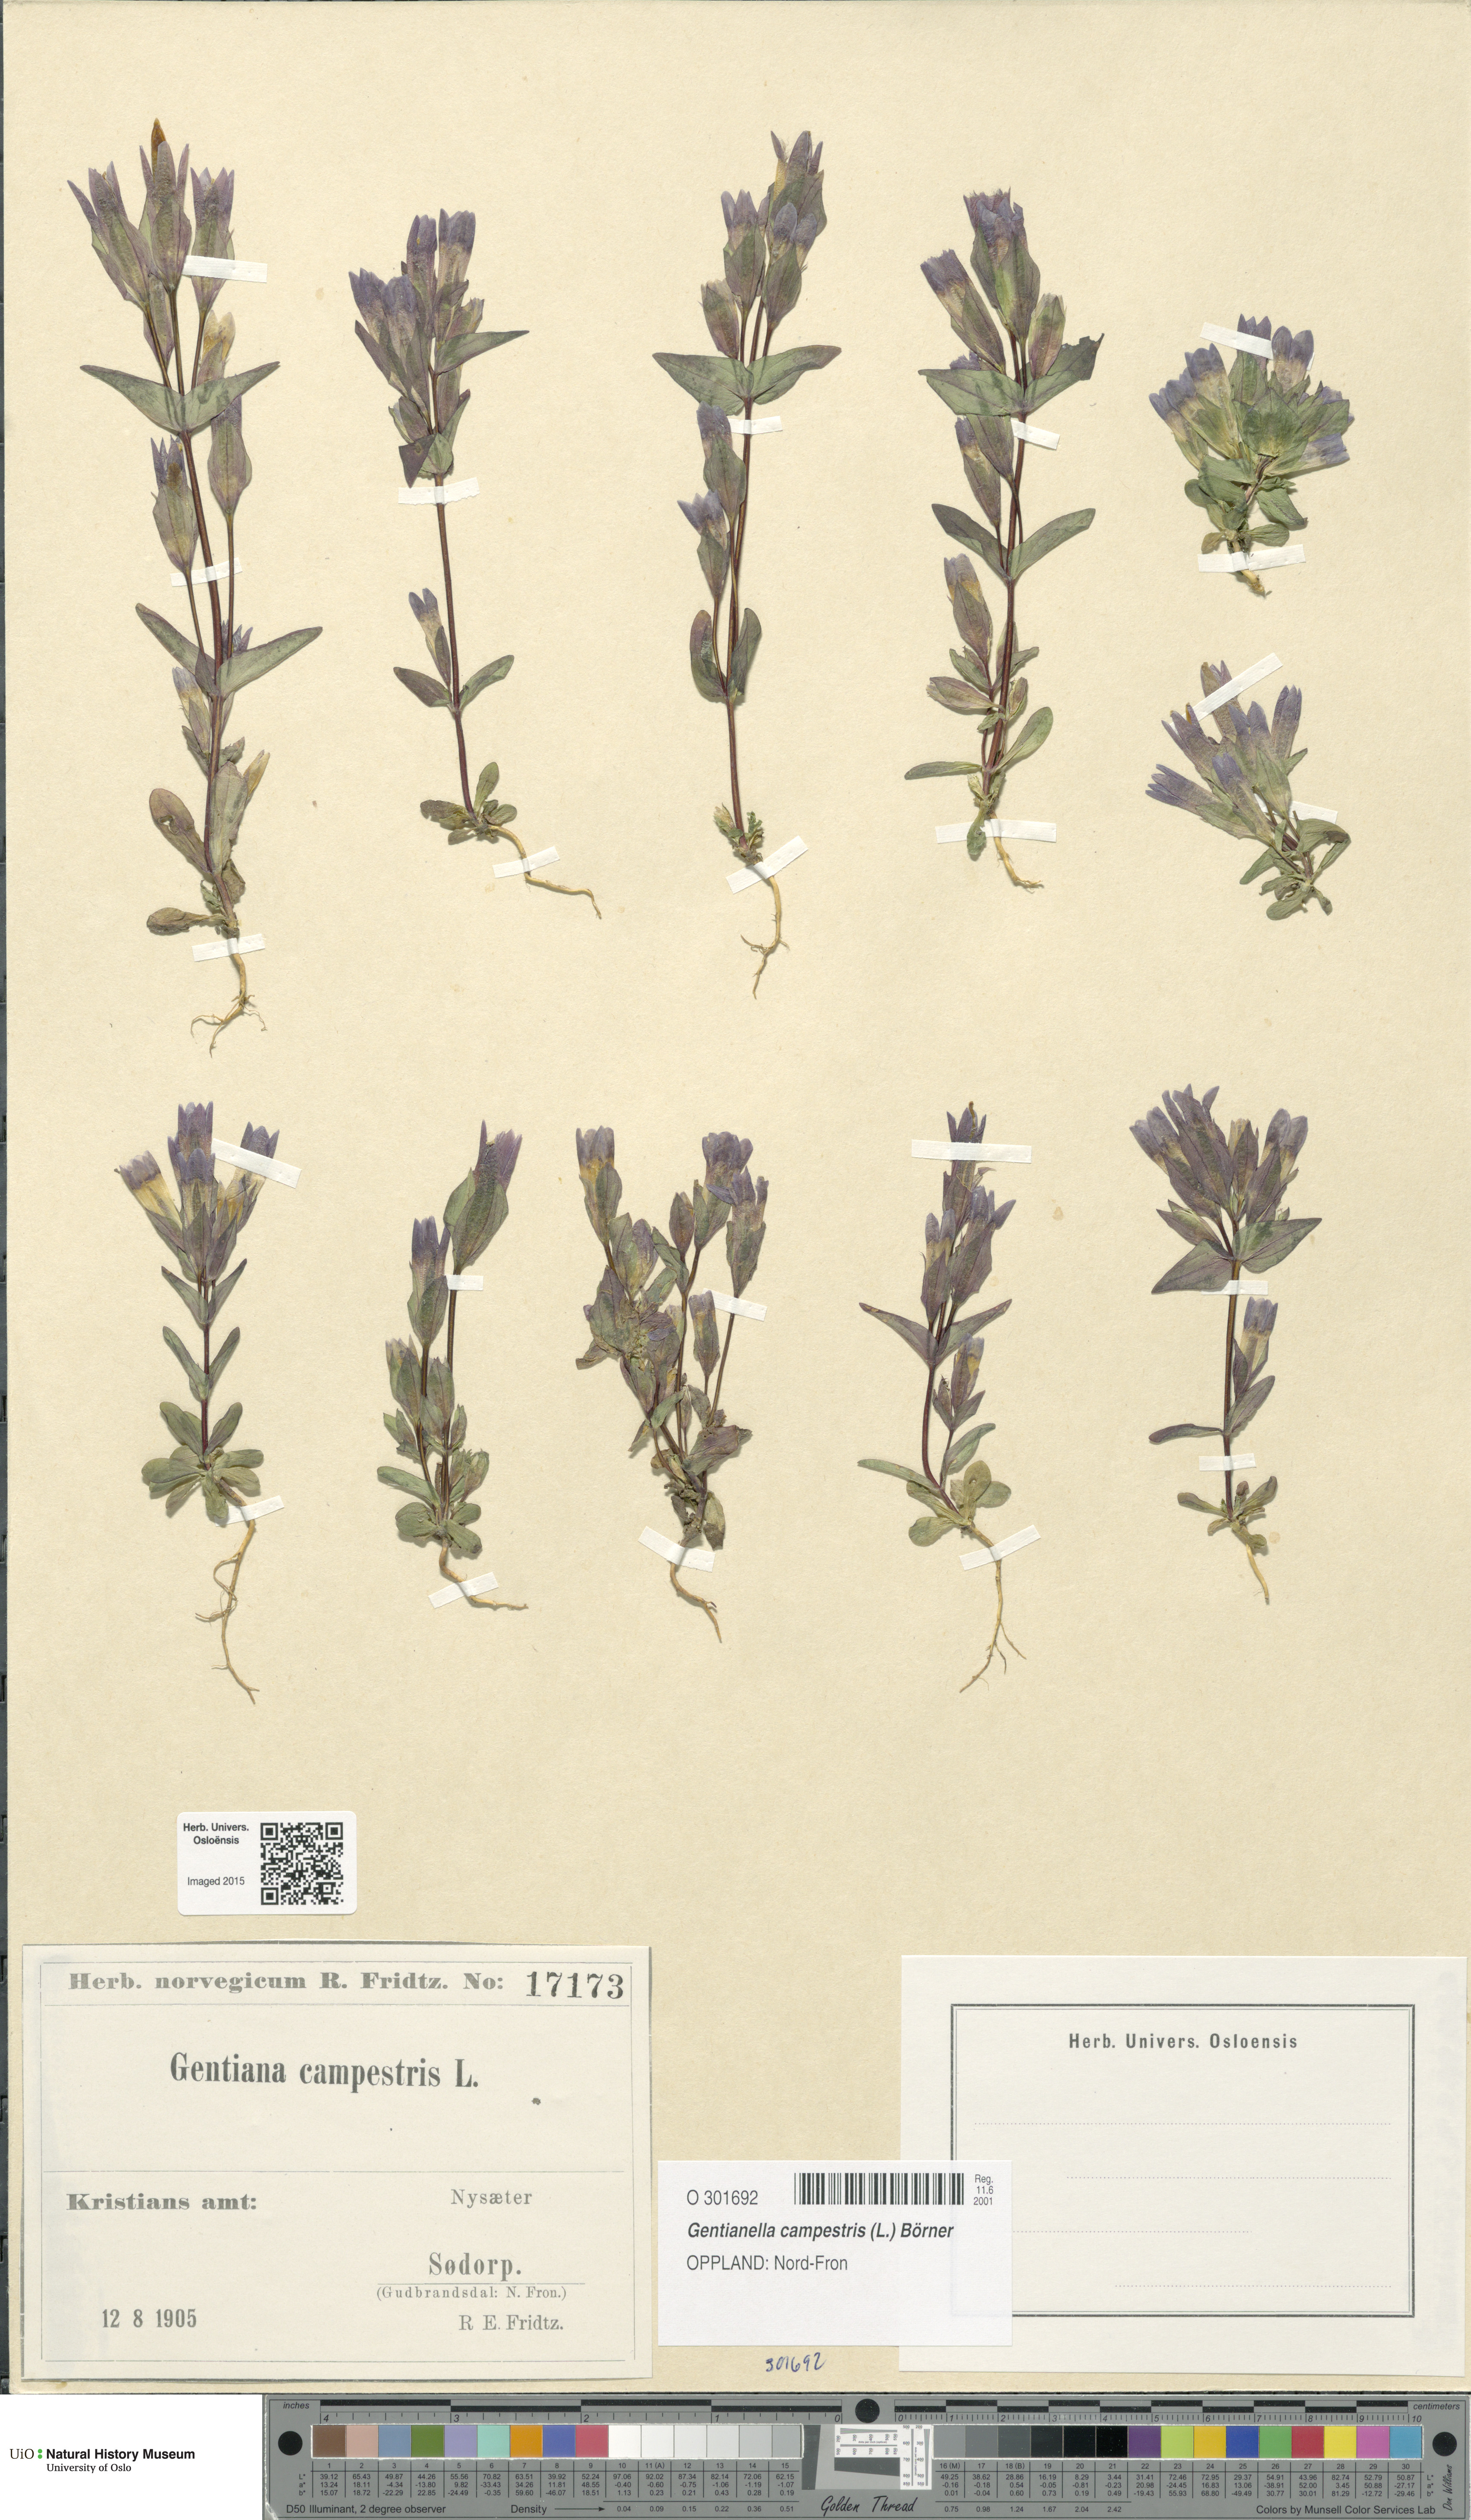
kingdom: Plantae
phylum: Tracheophyta
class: Magnoliopsida
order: Gentianales
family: Gentianaceae
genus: Gentianella
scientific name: Gentianella campestris
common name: Field gentian
